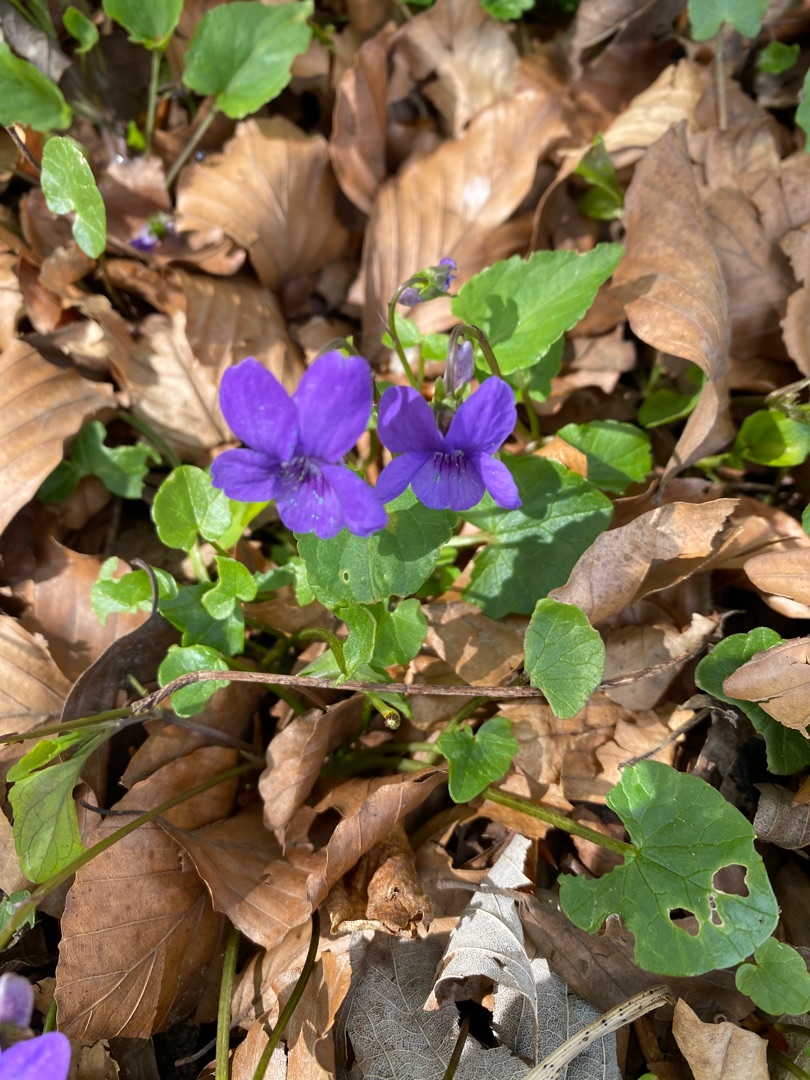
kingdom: Plantae
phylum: Tracheophyta
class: Magnoliopsida
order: Malpighiales
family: Violaceae
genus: Viola
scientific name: Viola riviniana
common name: Krat-viol
